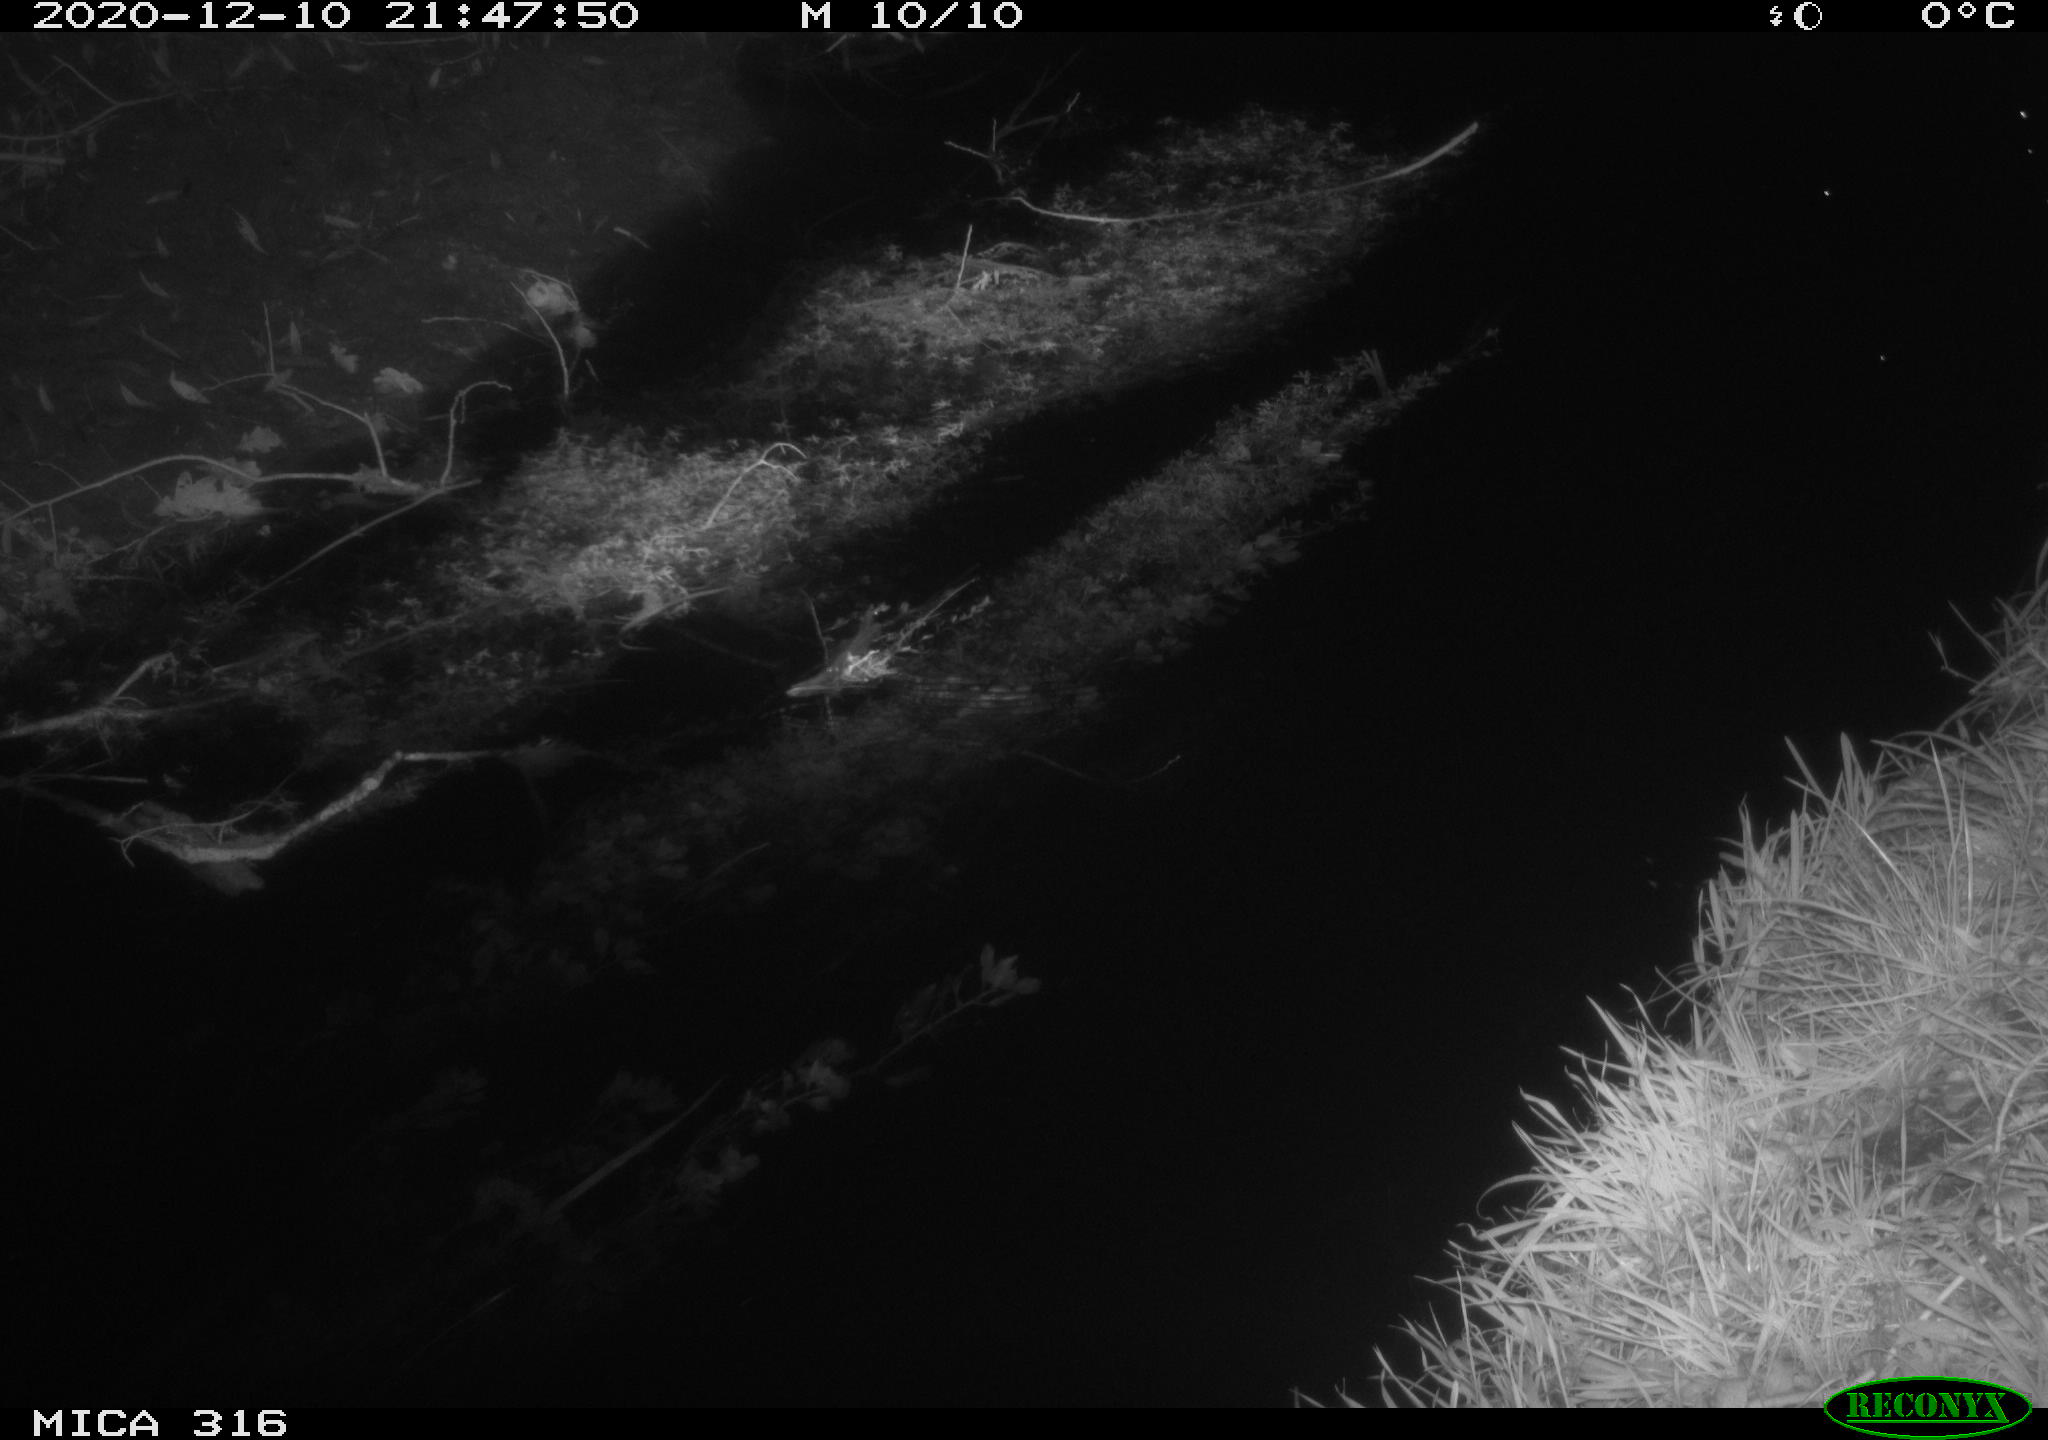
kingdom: Animalia
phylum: Chordata
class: Aves
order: Anseriformes
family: Anatidae
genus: Anas
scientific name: Anas platyrhynchos
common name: Mallard
